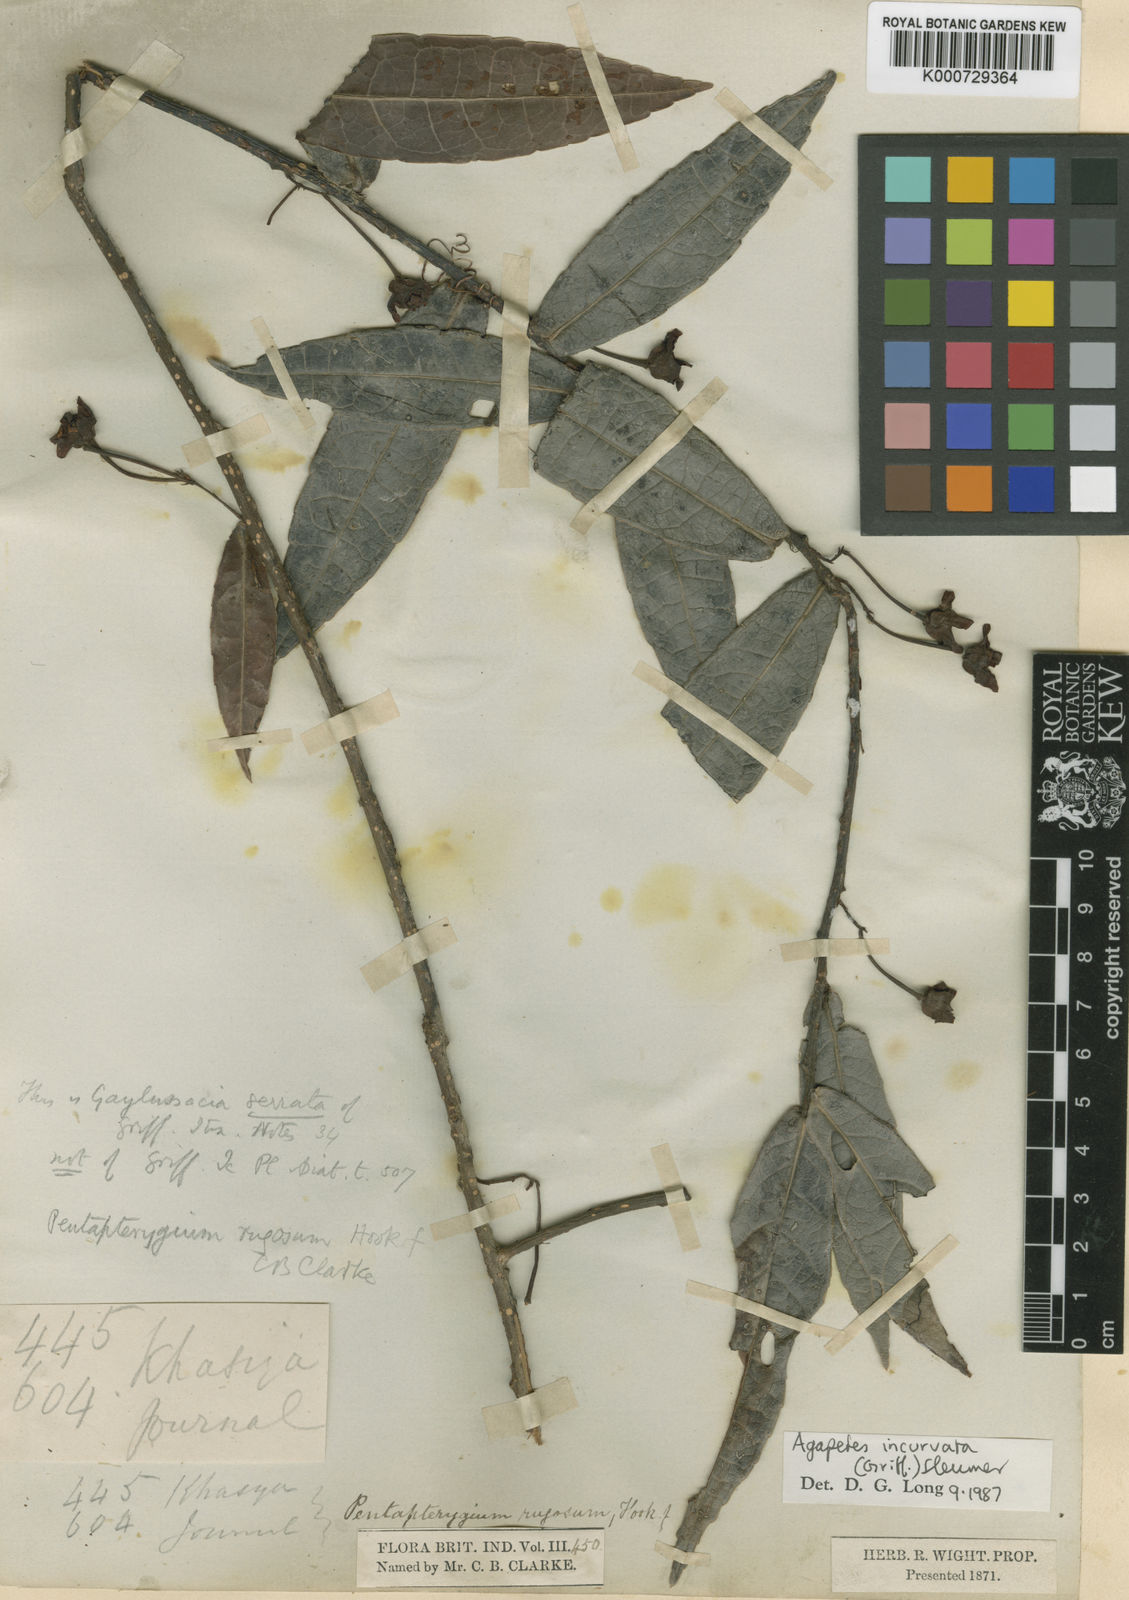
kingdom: Plantae
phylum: Tracheophyta
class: Magnoliopsida
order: Ericales
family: Ericaceae
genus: Agapetes
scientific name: Agapetes incurvata
